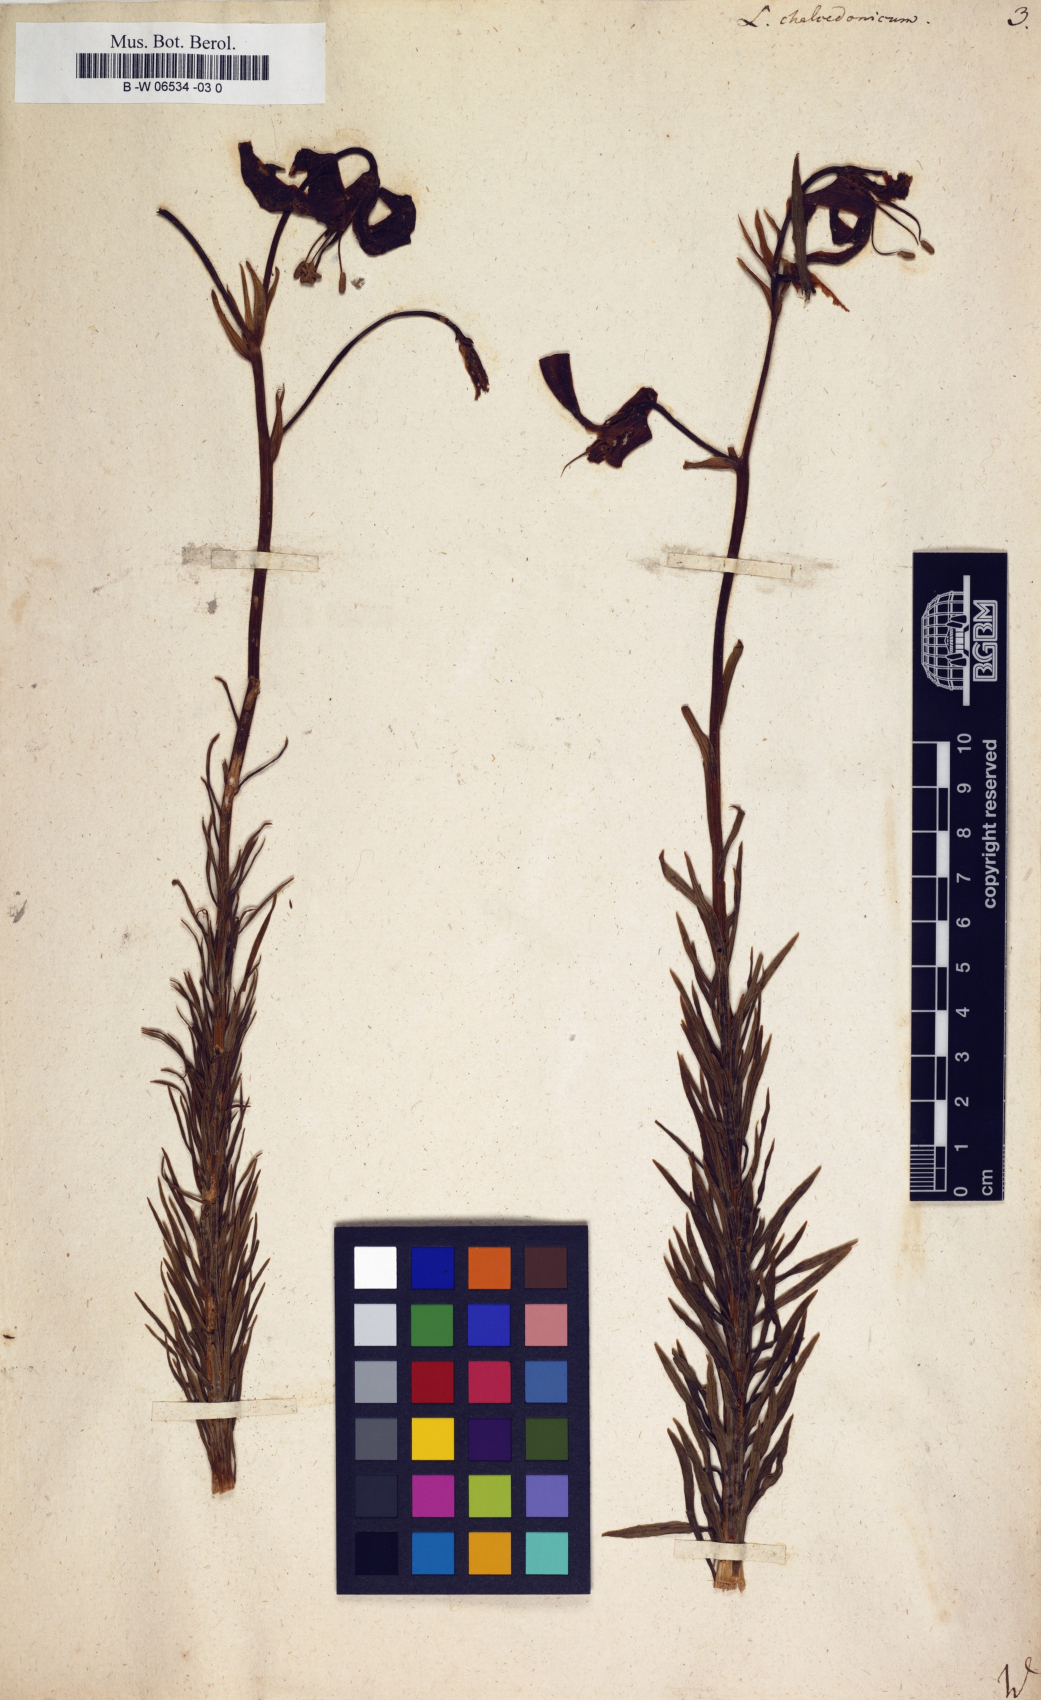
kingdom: Plantae
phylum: Tracheophyta
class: Liliopsida
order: Liliales
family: Liliaceae
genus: Lilium
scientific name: Lilium chalcedonicum
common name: Red martagon of constantinople
